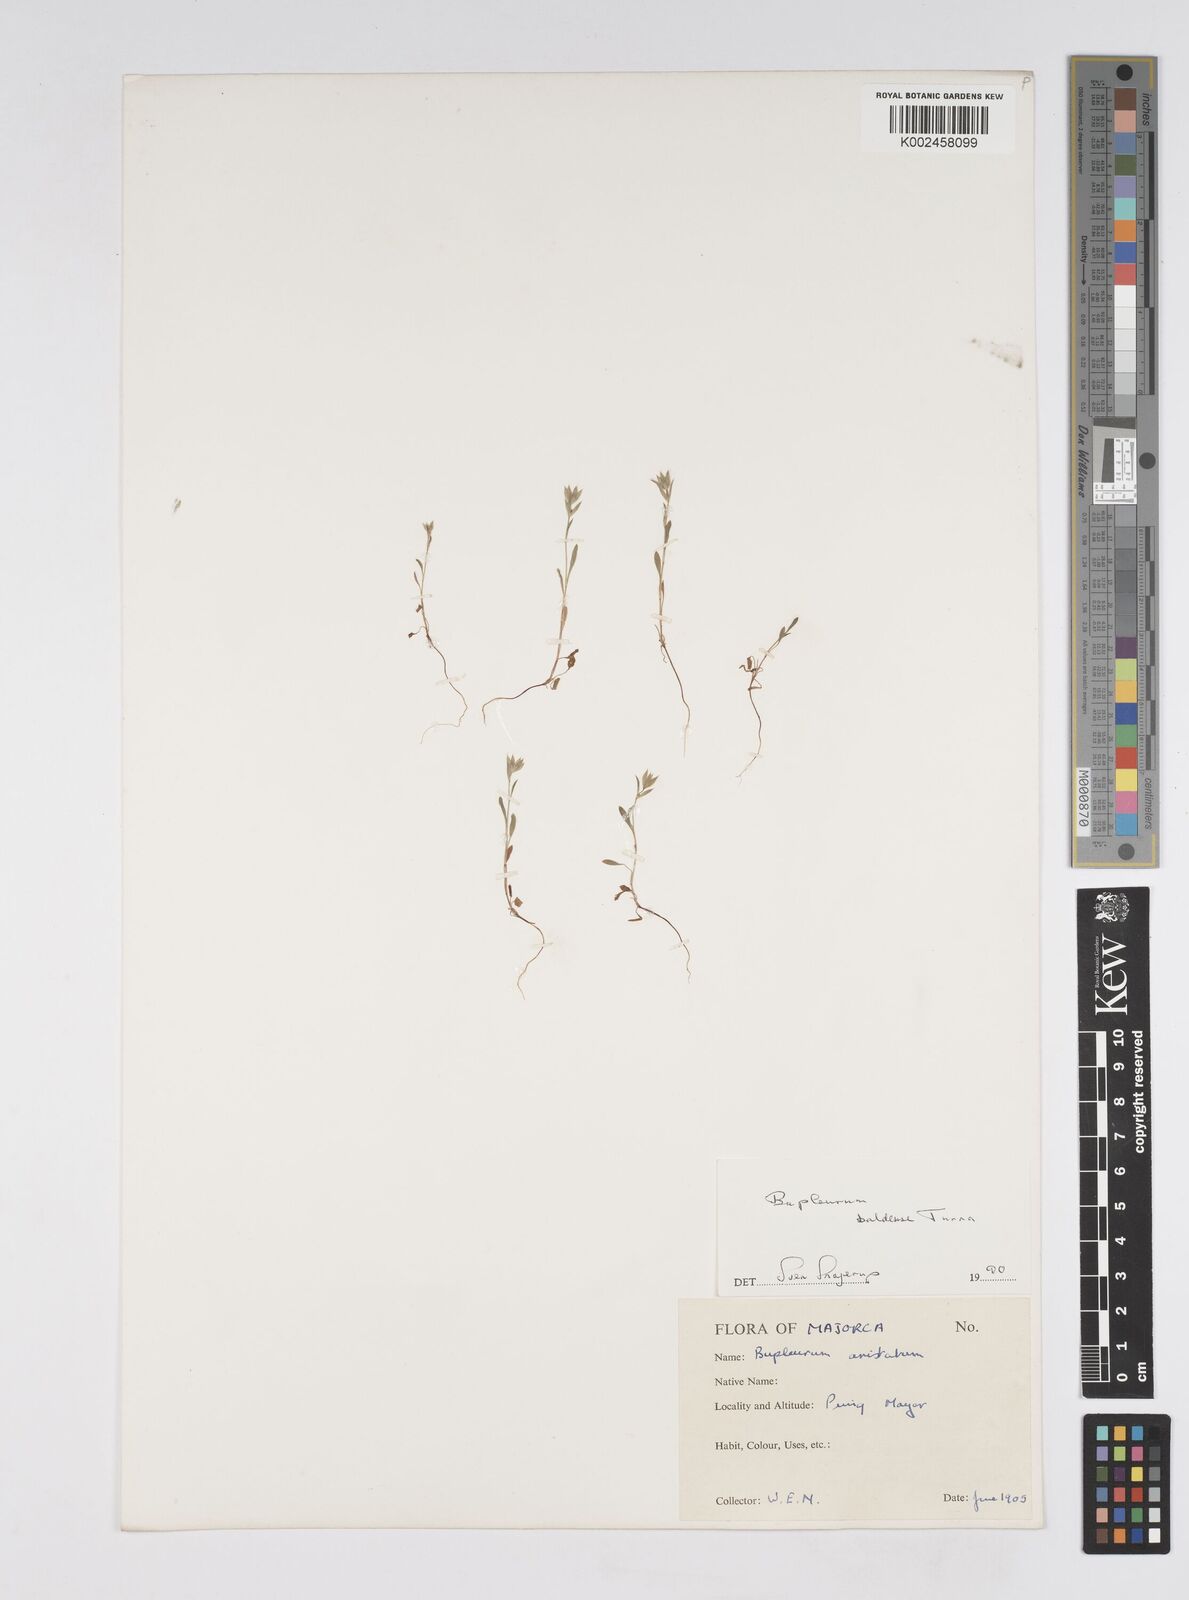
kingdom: Plantae
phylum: Tracheophyta
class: Magnoliopsida
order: Apiales
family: Apiaceae
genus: Bupleurum
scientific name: Bupleurum baldense
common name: Small hare's-ear
